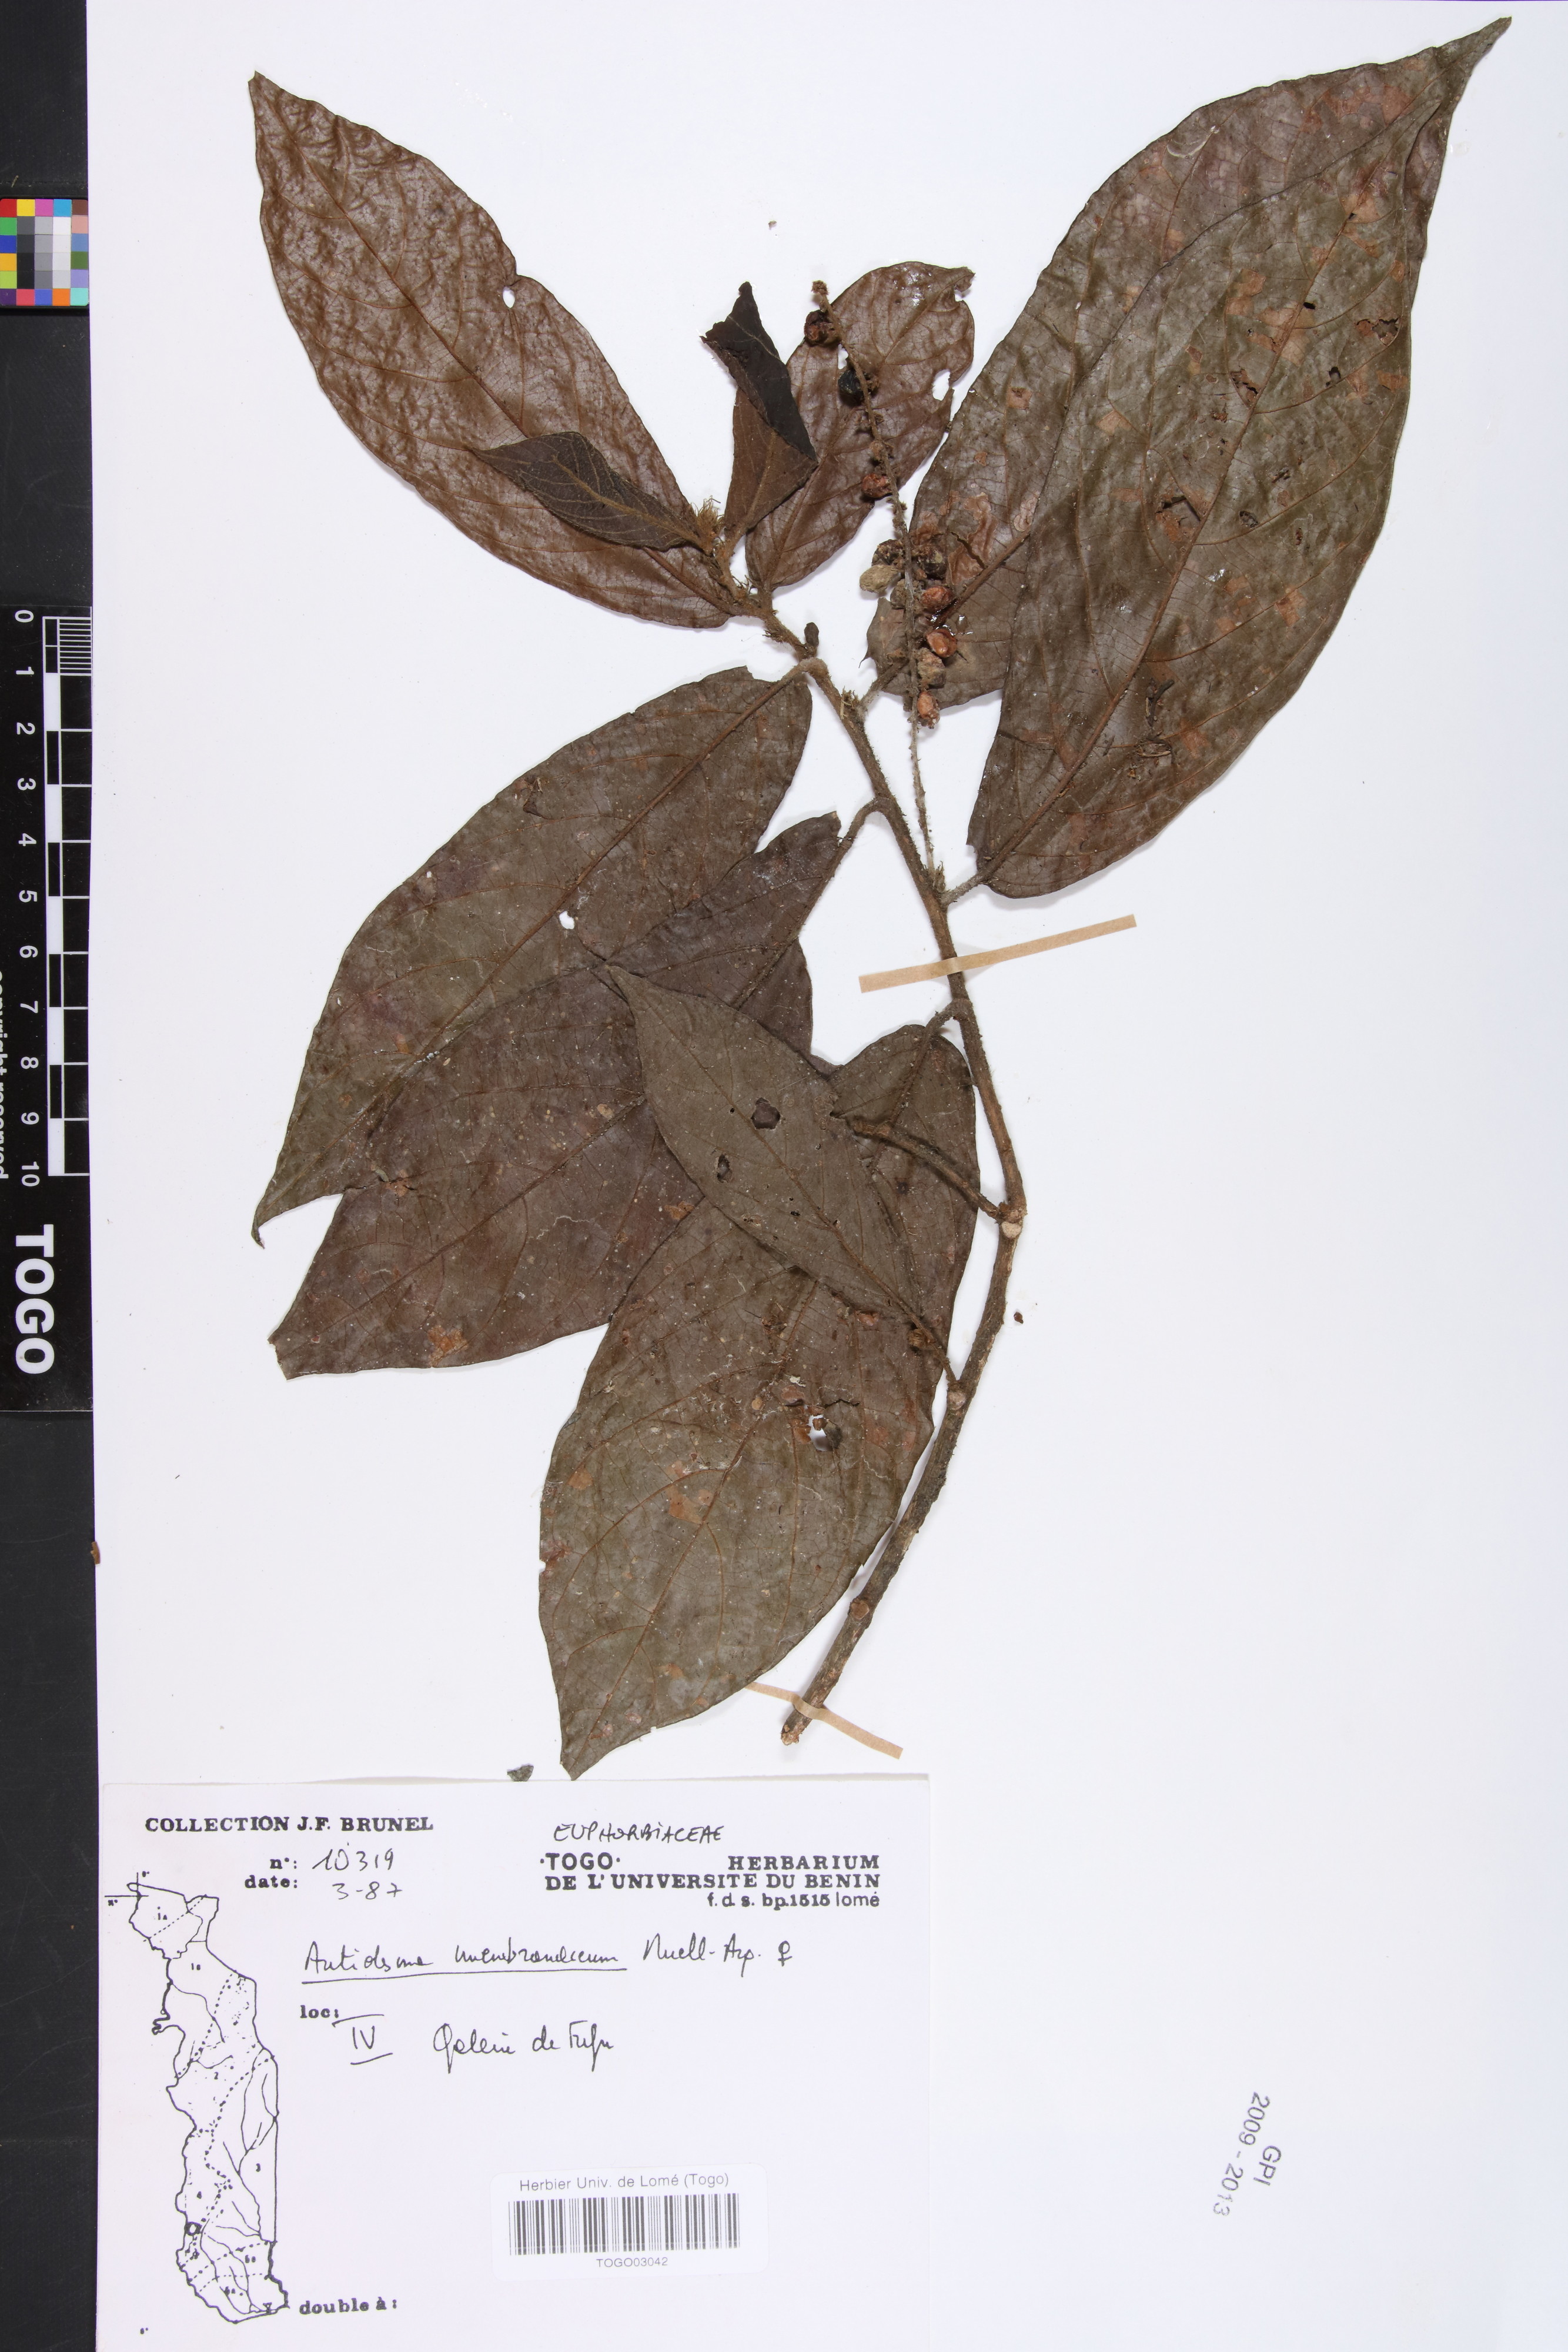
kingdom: Plantae
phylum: Tracheophyta
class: Magnoliopsida
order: Malpighiales
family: Phyllanthaceae
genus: Antidesma
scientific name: Antidesma membranaceum
